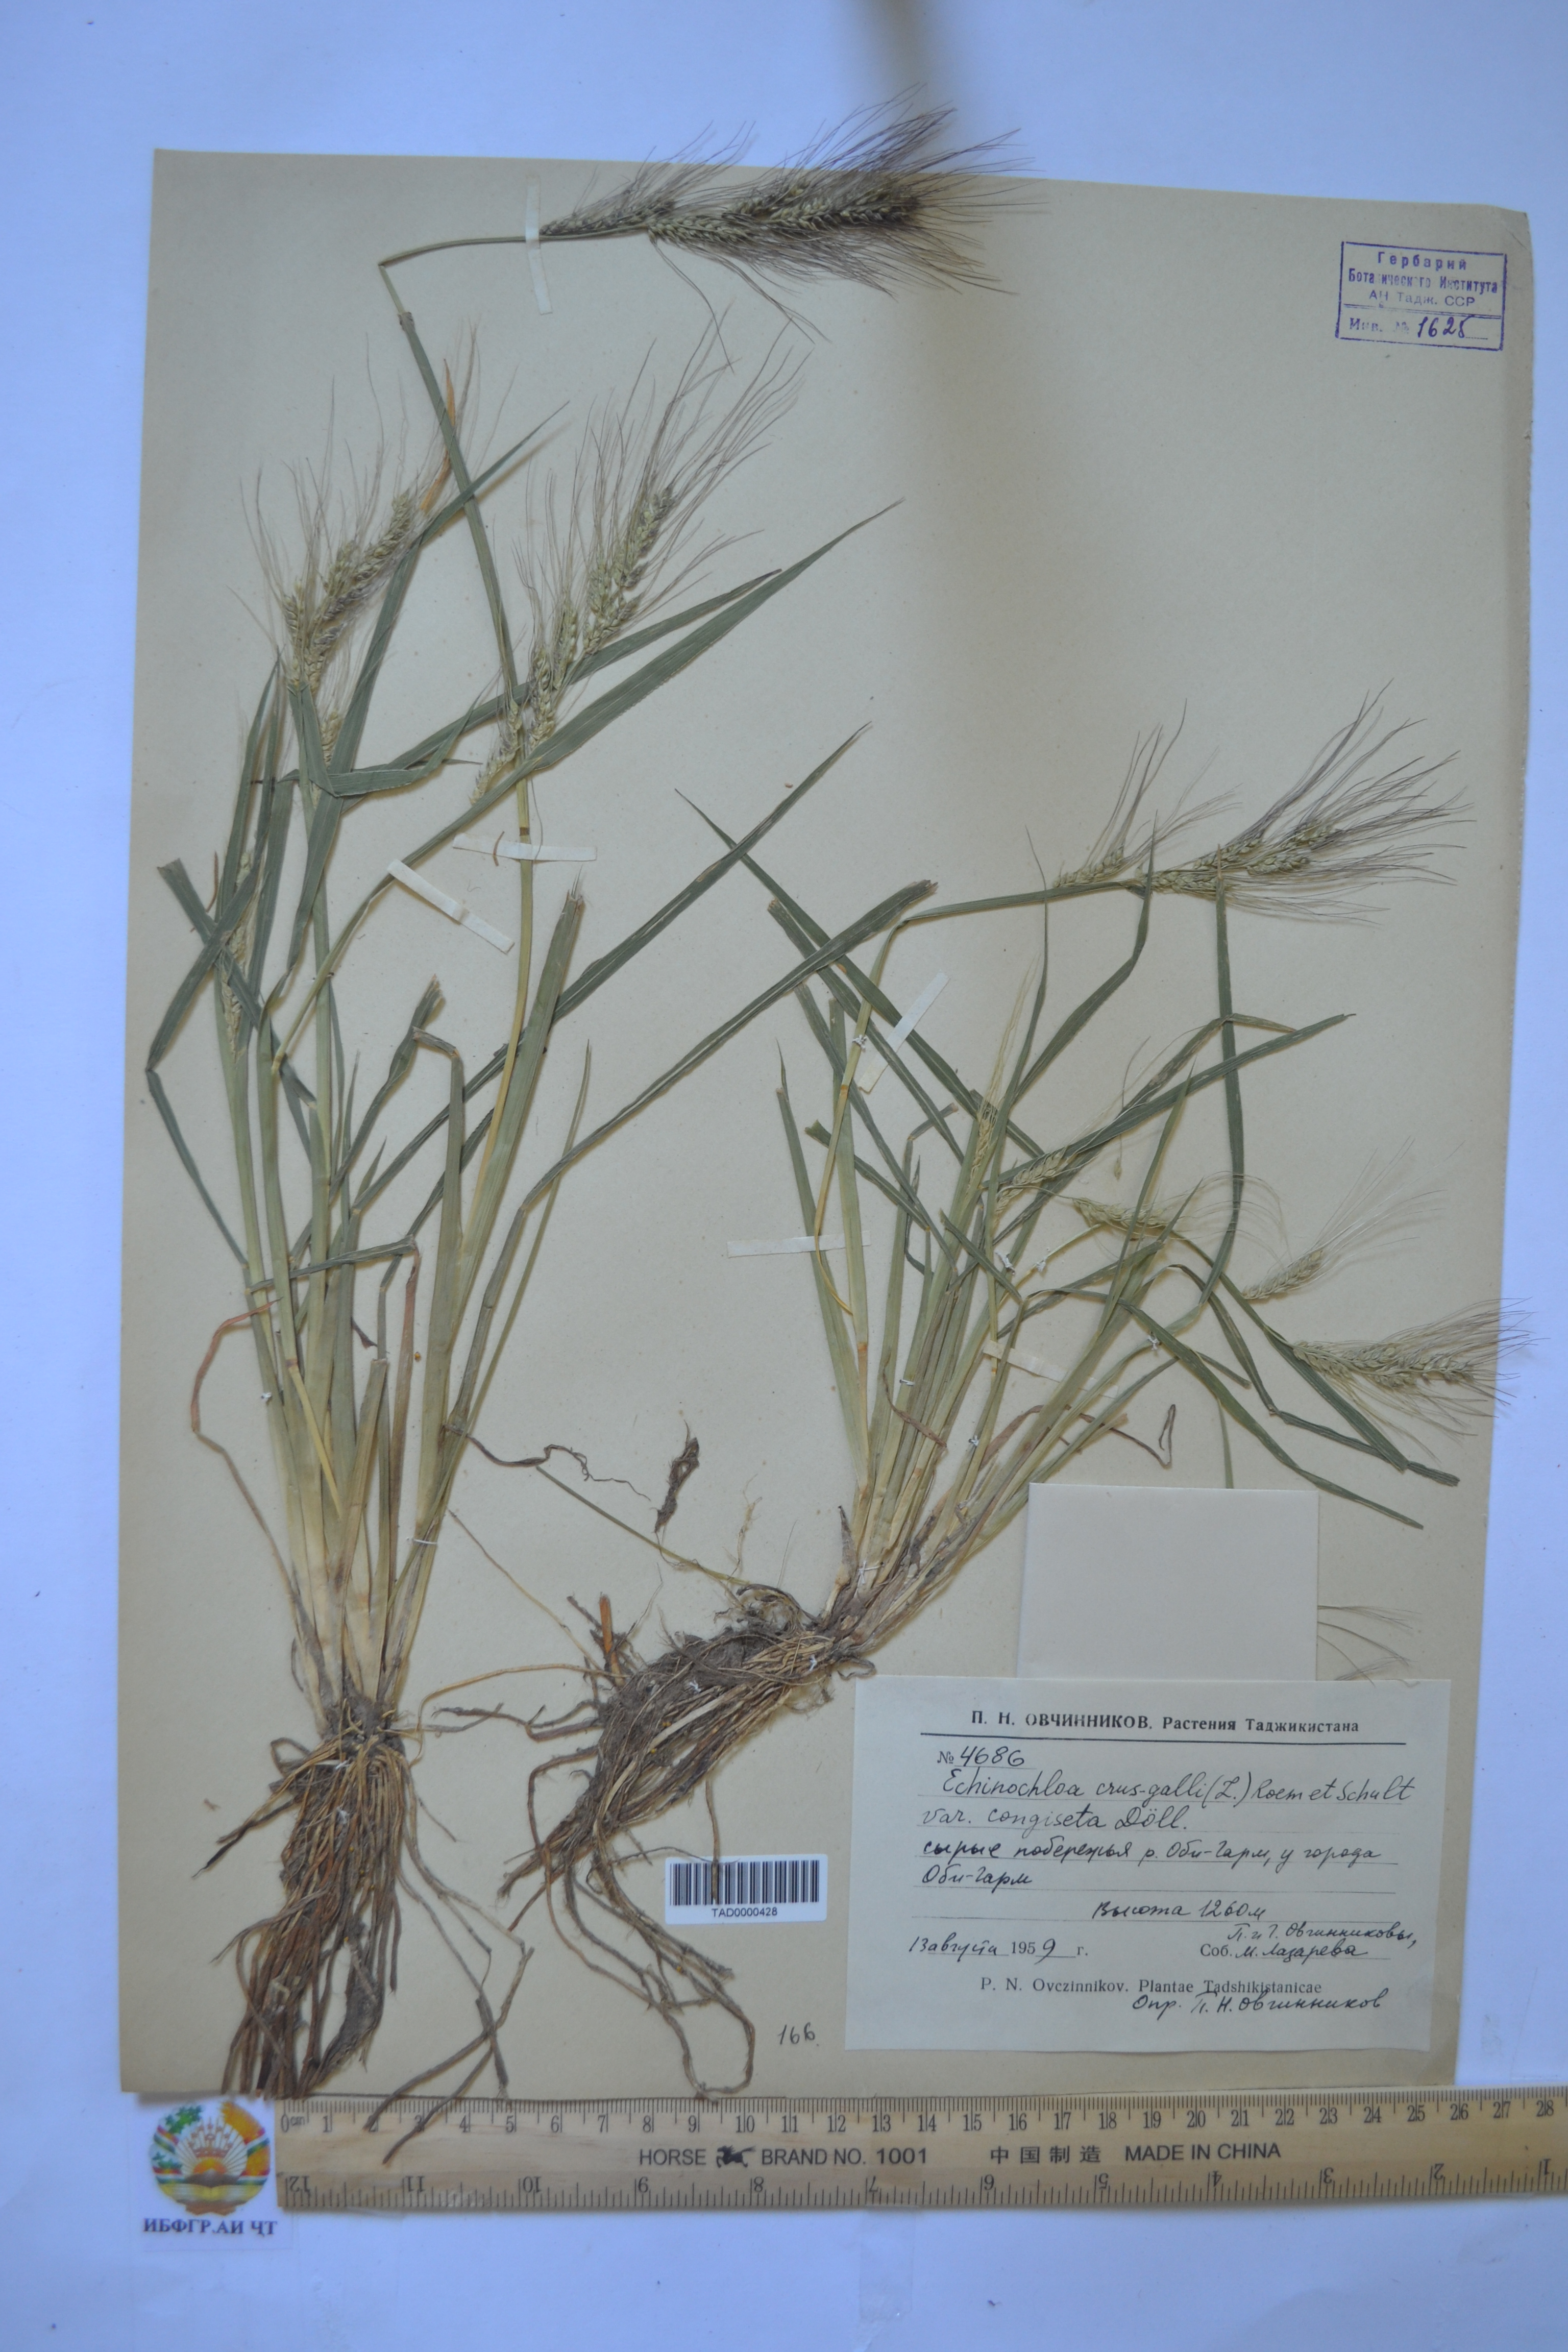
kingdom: Plantae
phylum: Tracheophyta
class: Liliopsida
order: Poales
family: Poaceae
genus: Echinochloa
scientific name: Echinochloa crus-galli
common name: Cockspur
